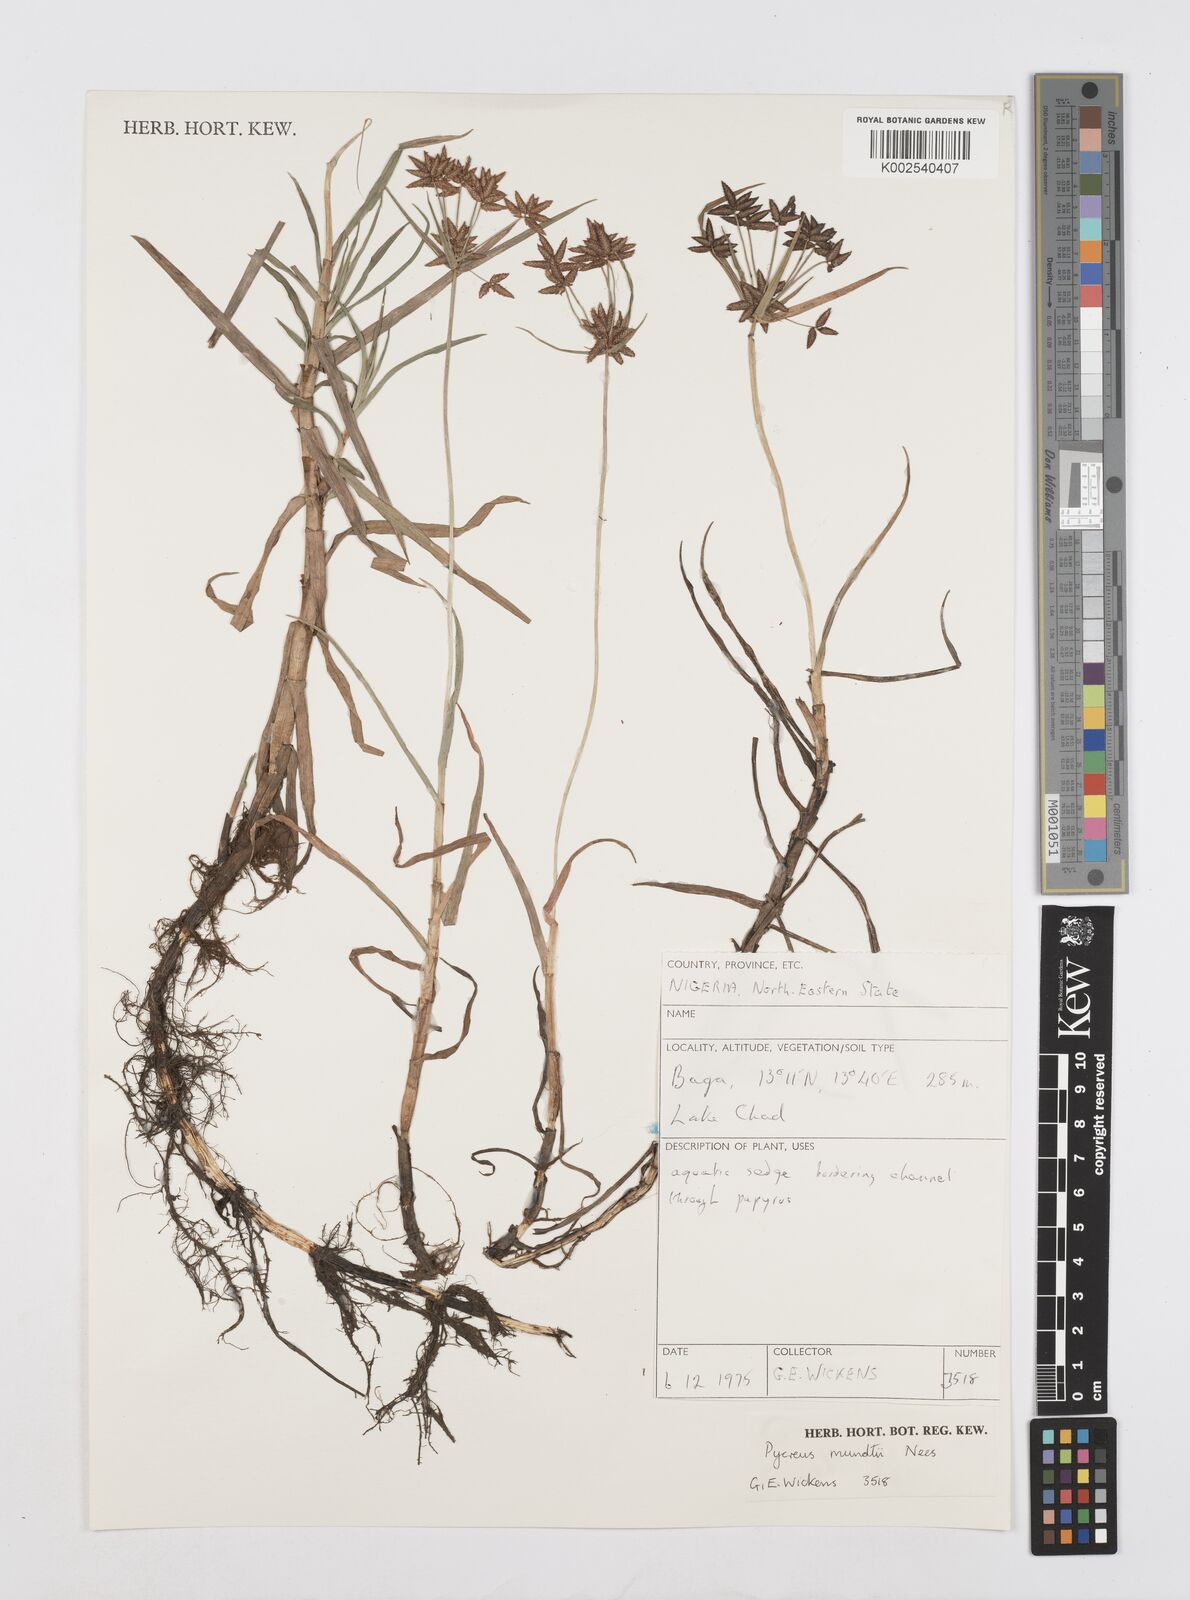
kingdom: Plantae
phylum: Tracheophyta
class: Liliopsida
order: Poales
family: Cyperaceae
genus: Cyperus
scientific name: Cyperus mundii
